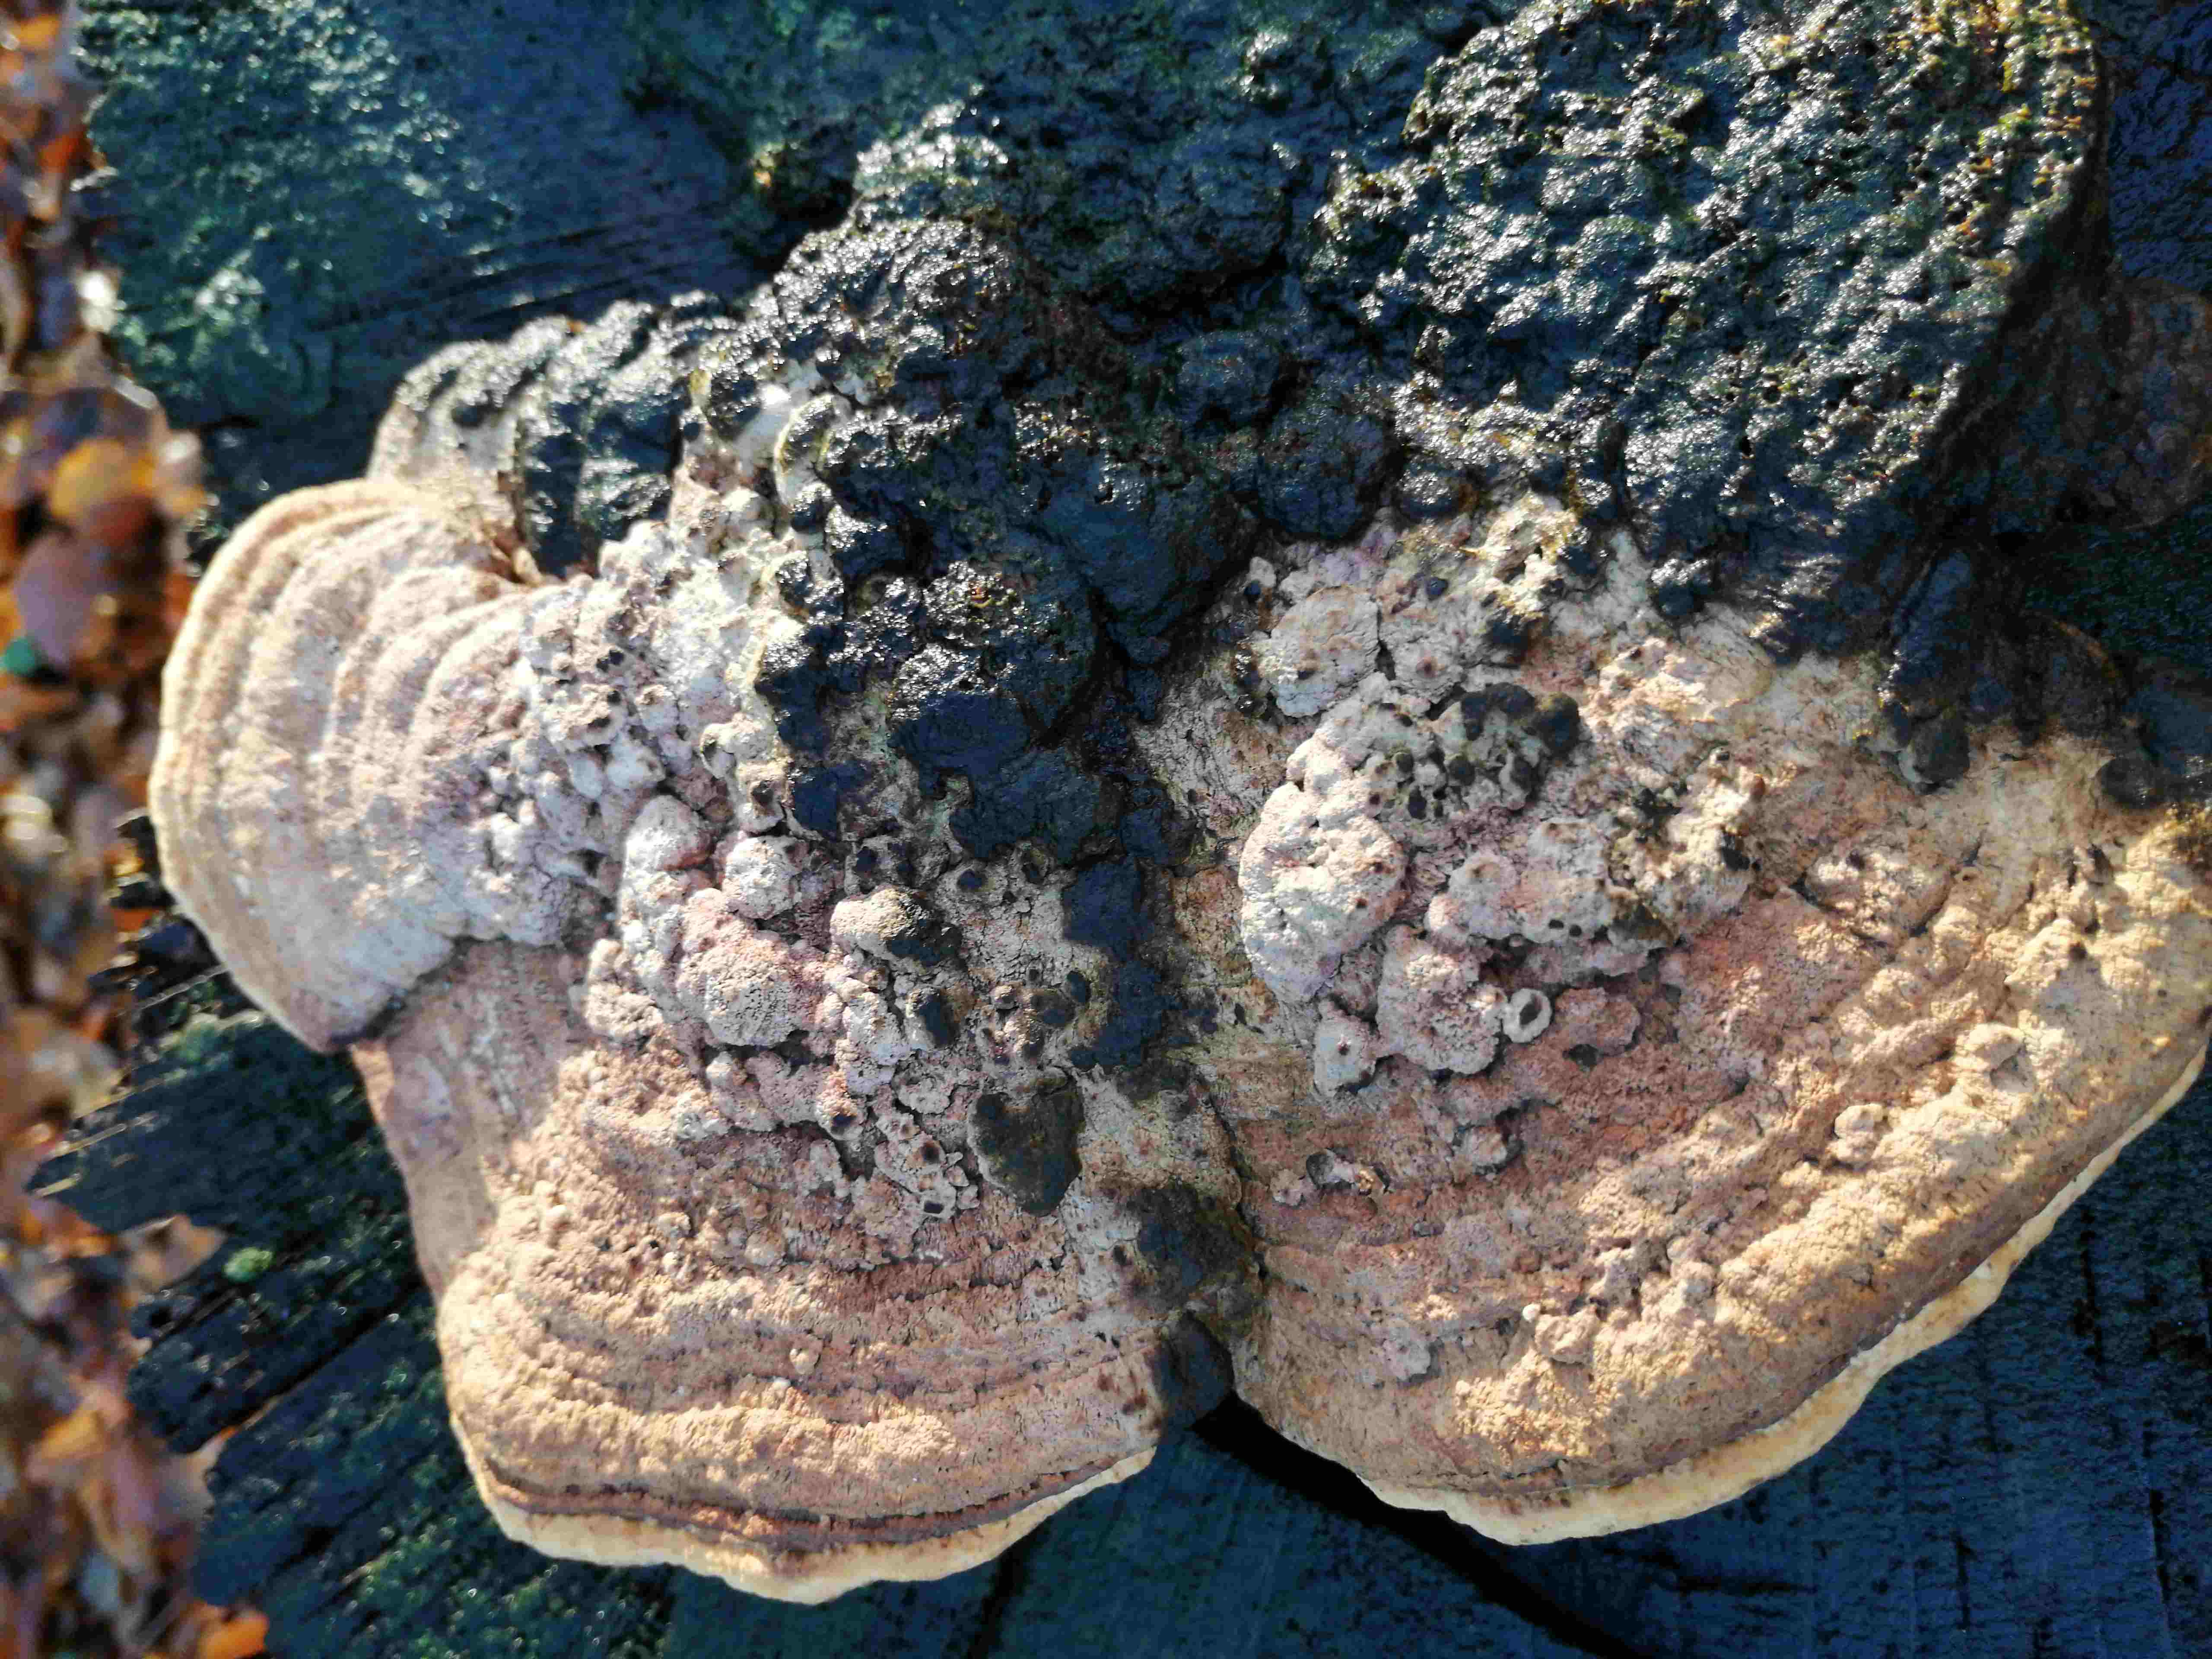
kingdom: Fungi
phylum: Basidiomycota
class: Agaricomycetes
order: Polyporales
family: Fomitopsidaceae
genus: Daedalea
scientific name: Daedalea quercina
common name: ege-labyrintsvamp
